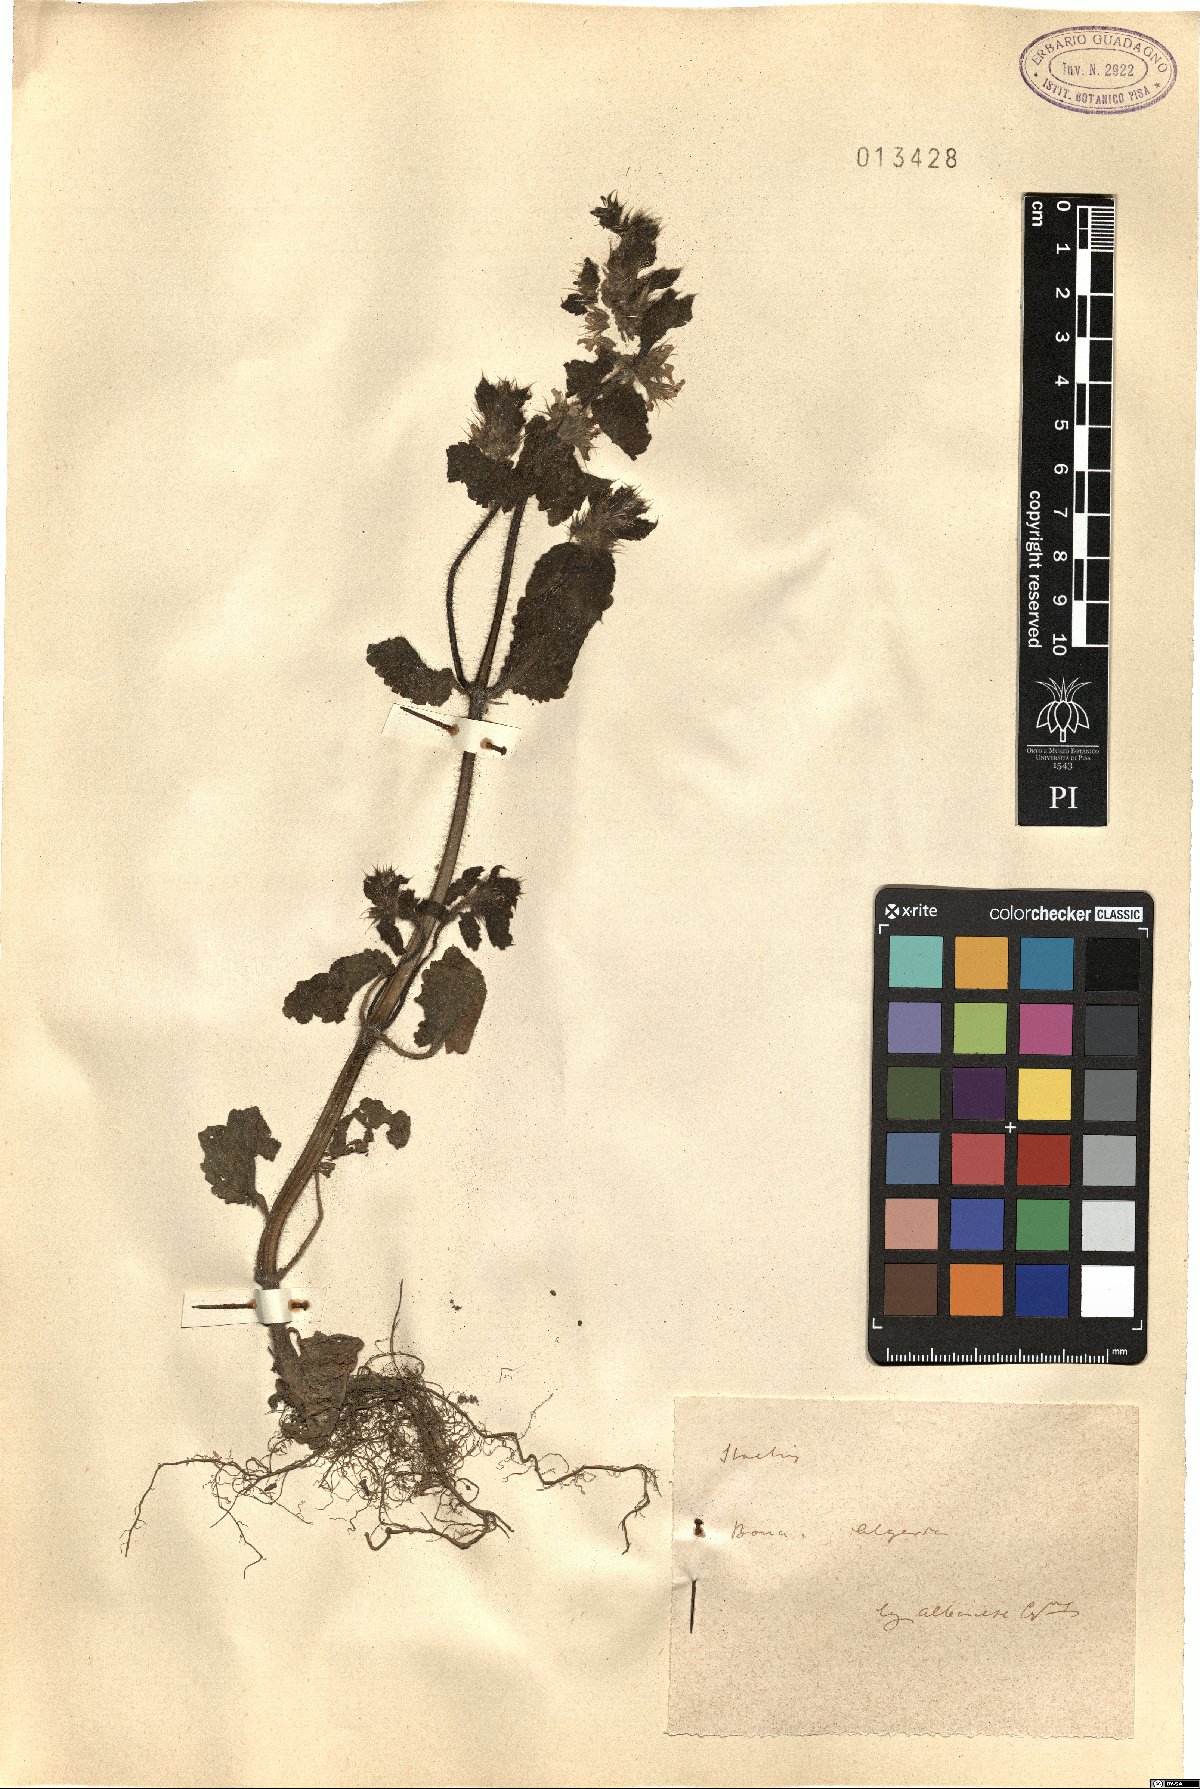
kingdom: Plantae
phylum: Tracheophyta
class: Magnoliopsida
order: Lamiales
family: Lamiaceae
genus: Stachys
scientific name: Stachys
